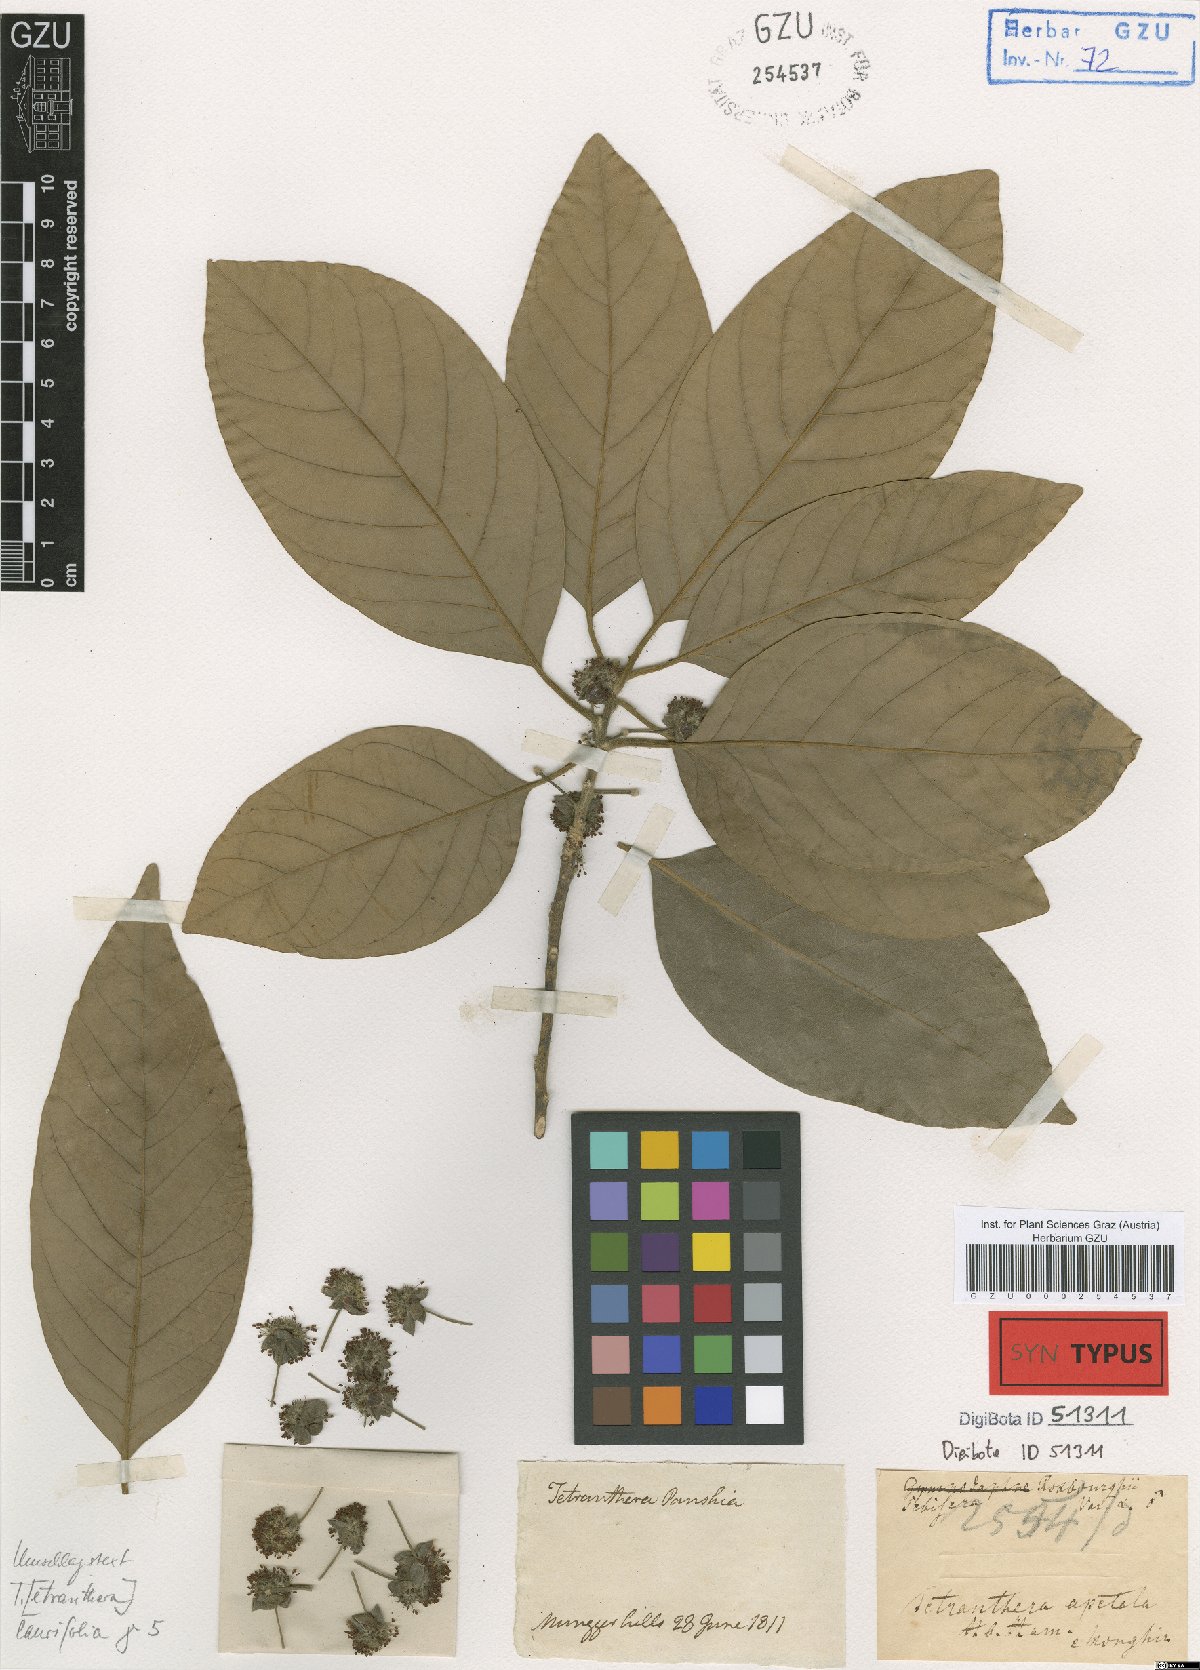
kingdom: Plantae
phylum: Tracheophyta
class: Magnoliopsida
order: Laurales
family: Lauraceae
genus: Litsea
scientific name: Litsea glutinosa
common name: Indian-laurel
